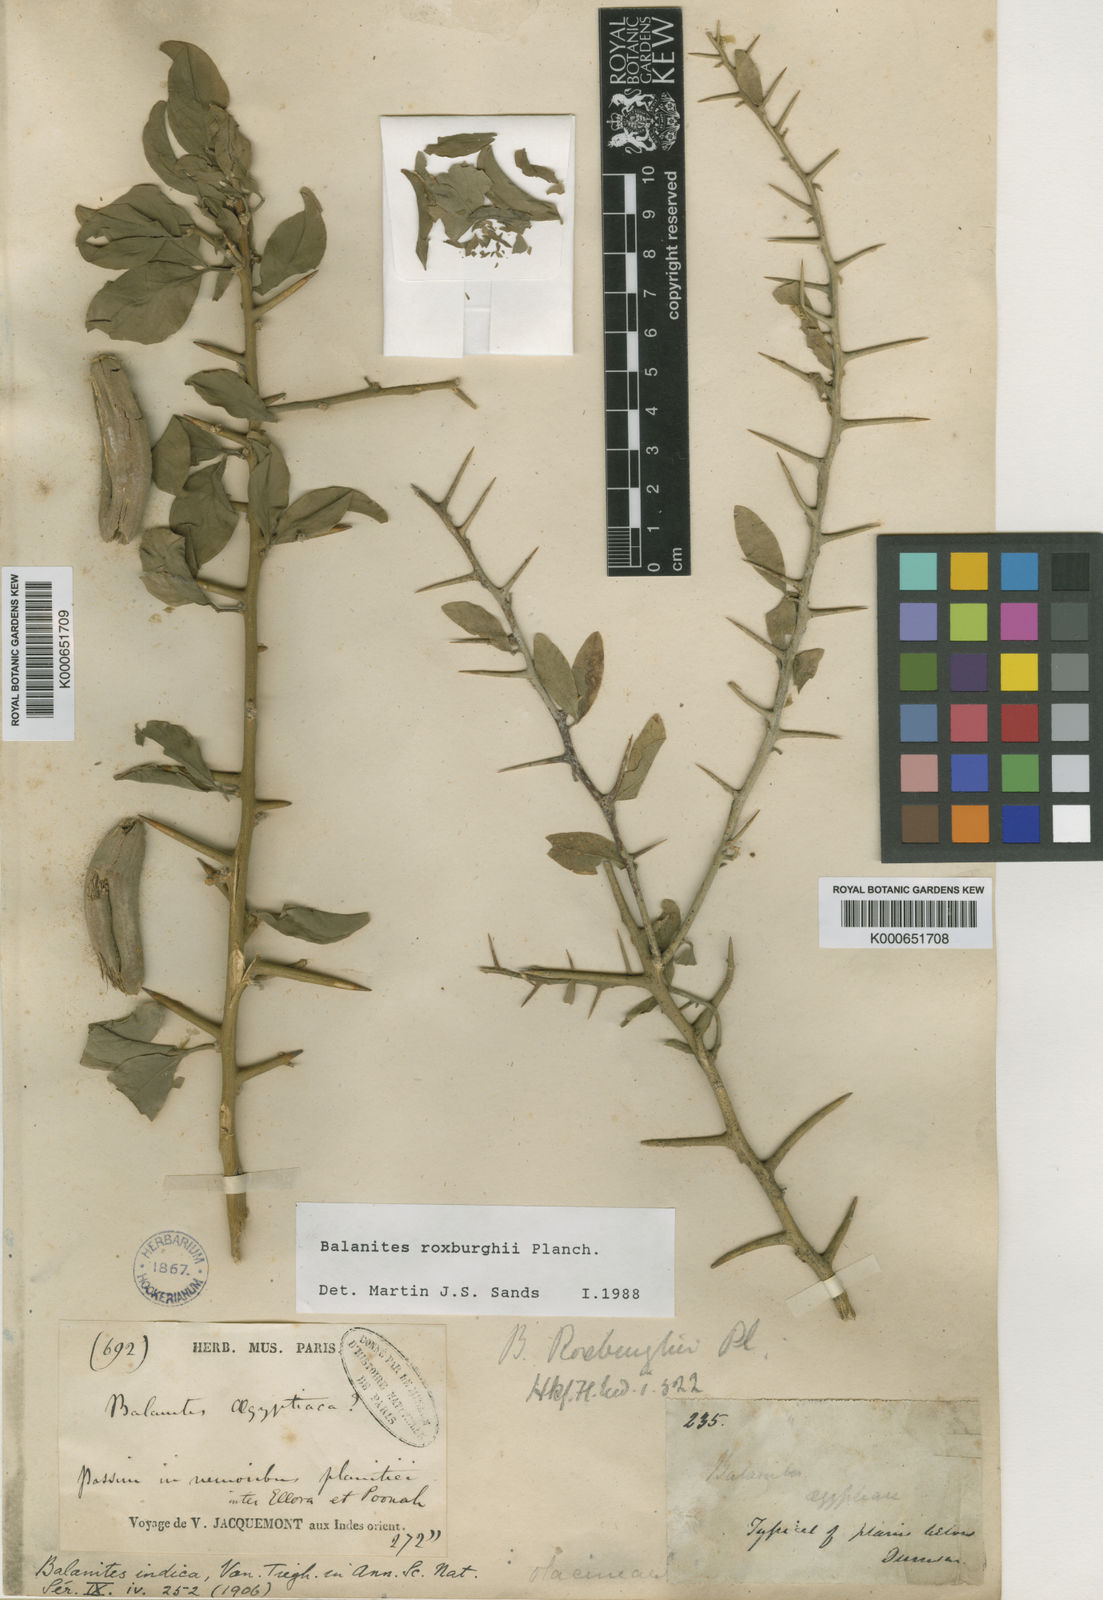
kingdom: Plantae
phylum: Tracheophyta
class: Magnoliopsida
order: Zygophyllales
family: Zygophyllaceae
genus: Balanites
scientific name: Balanites aegyptiaca
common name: Balanites
